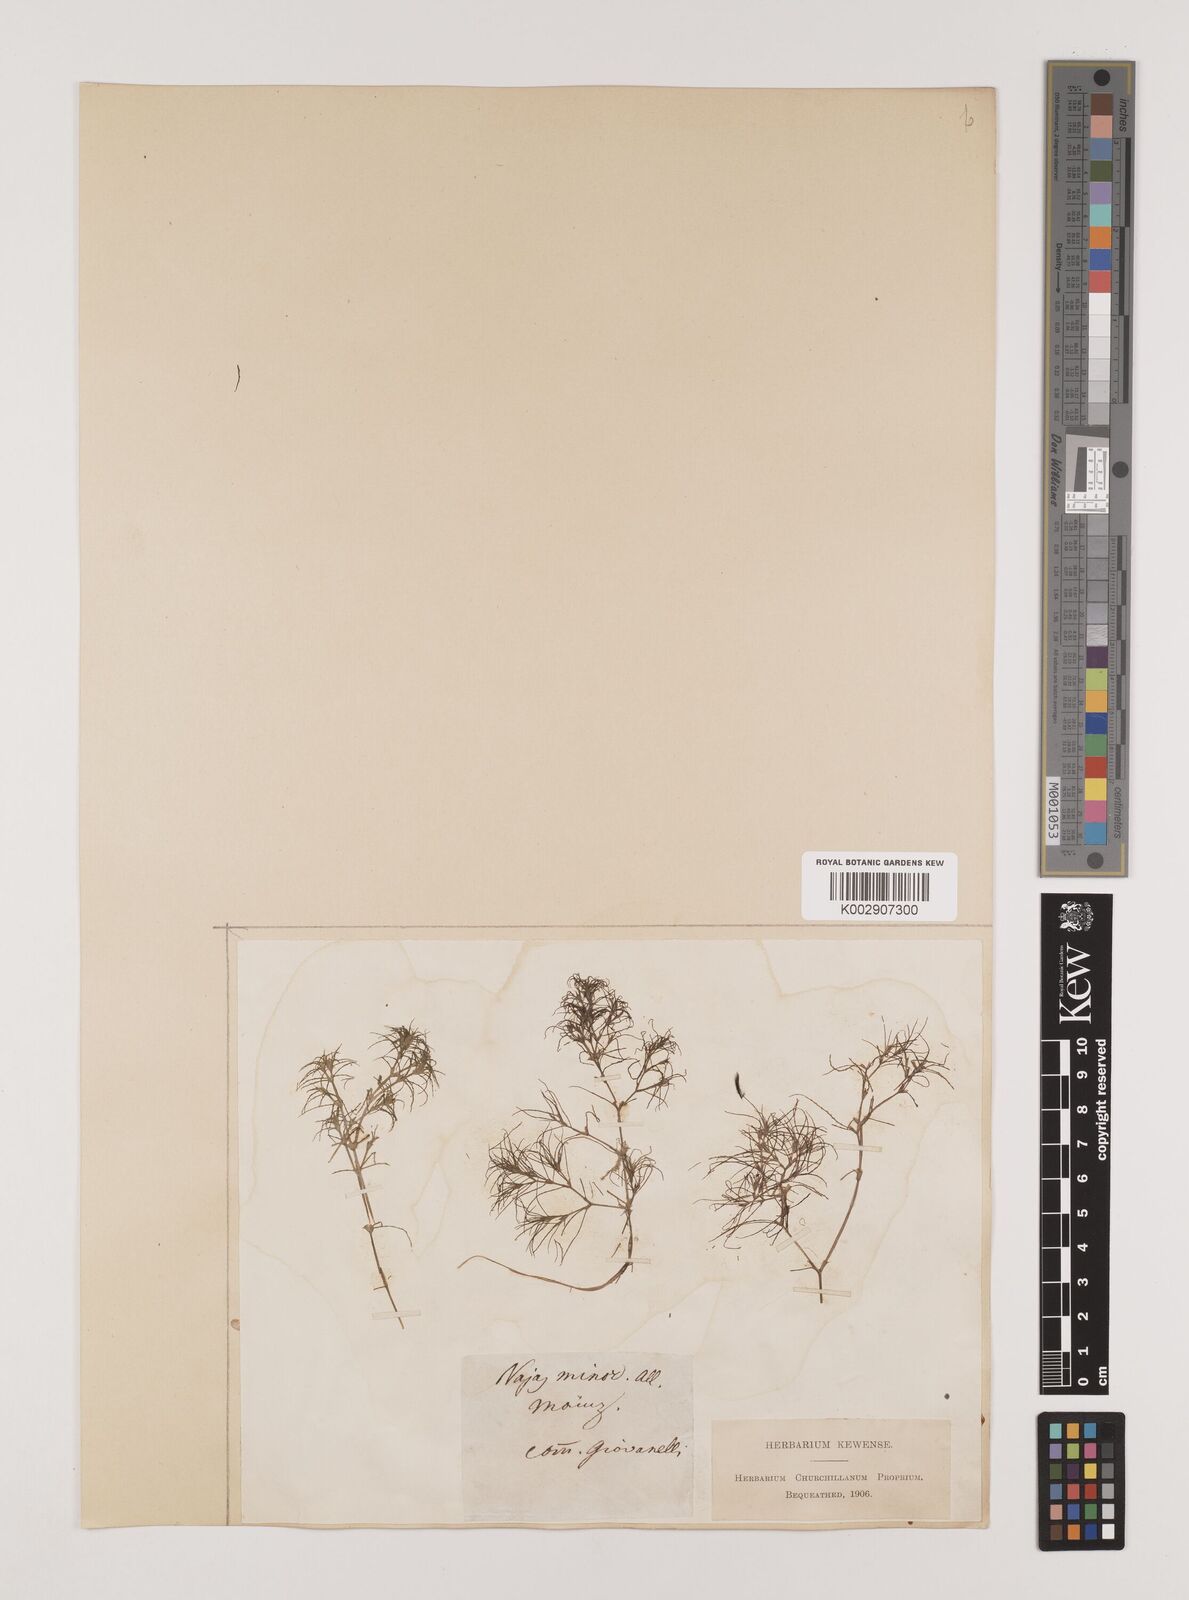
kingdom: Plantae
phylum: Tracheophyta
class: Liliopsida
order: Alismatales
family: Hydrocharitaceae
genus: Najas
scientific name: Najas minor
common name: Brittle naiad
